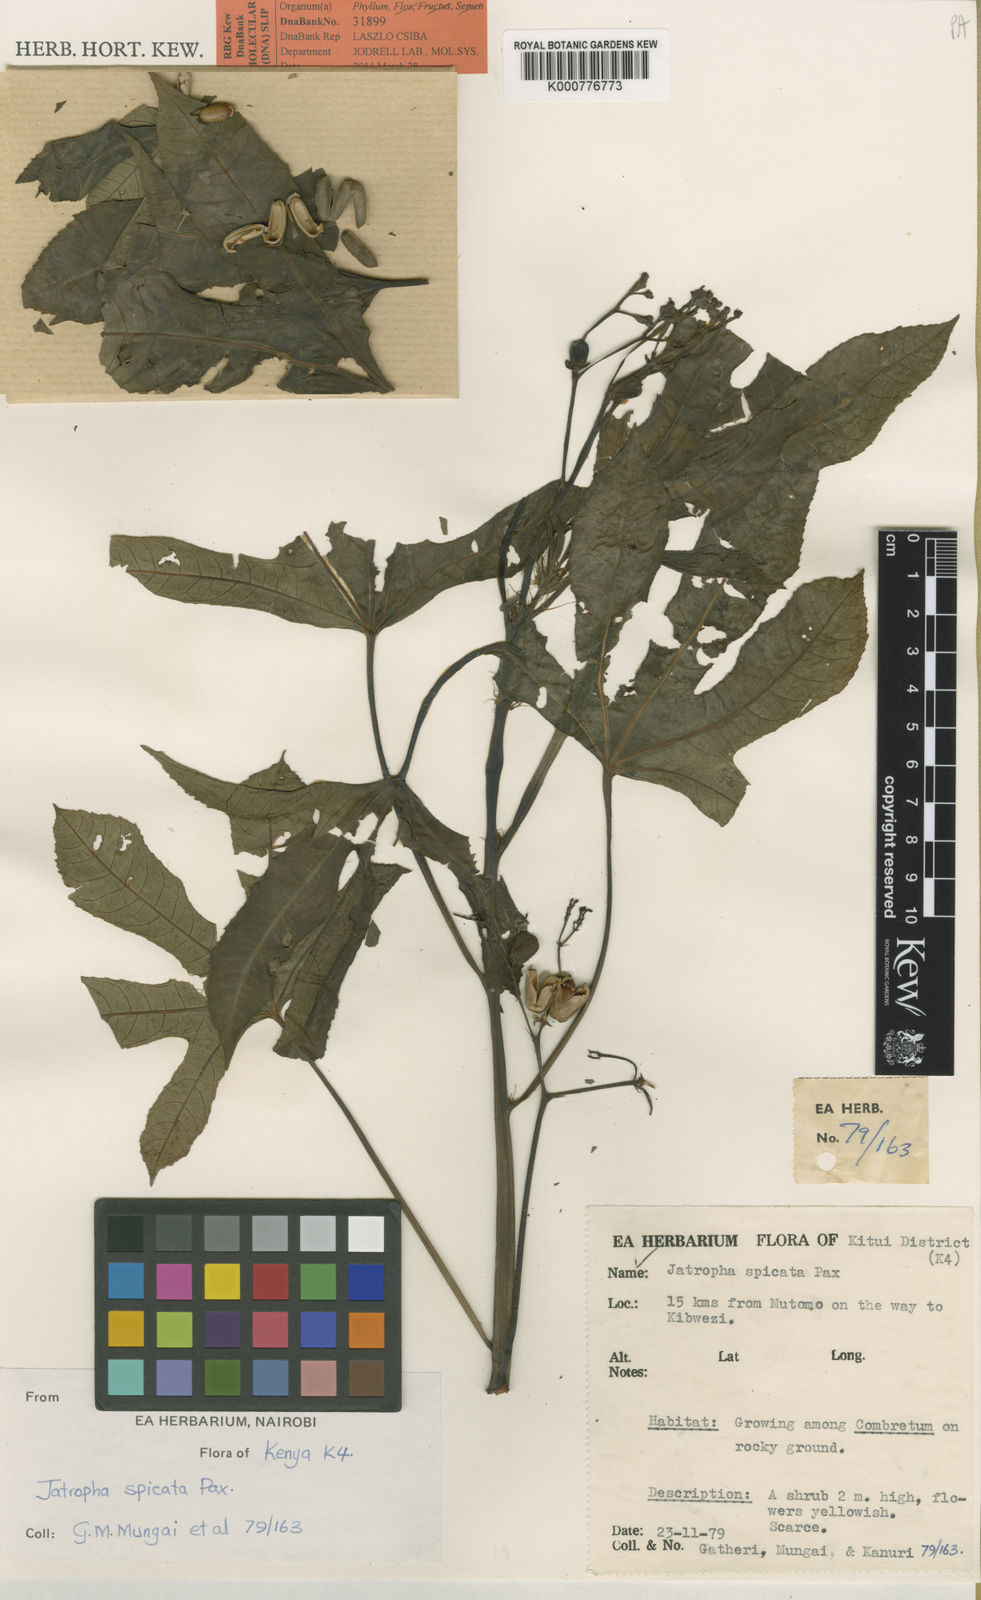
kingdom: Plantae
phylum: Tracheophyta
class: Magnoliopsida
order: Malpighiales
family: Euphorbiaceae
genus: Jatropha
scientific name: Jatropha spicata
